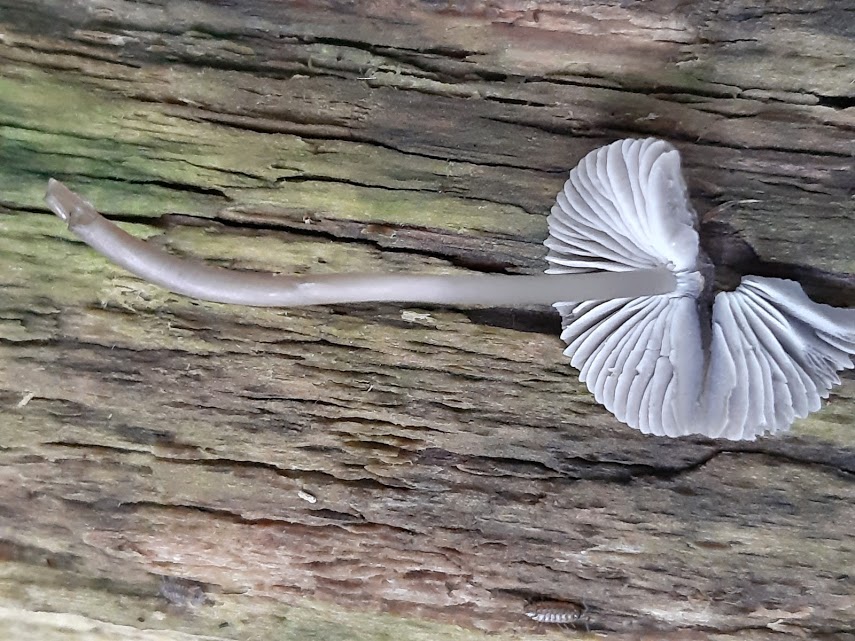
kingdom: Fungi
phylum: Basidiomycota
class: Agaricomycetes
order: Agaricales
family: Mycenaceae
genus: Mycena
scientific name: Mycena
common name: huesvamp
